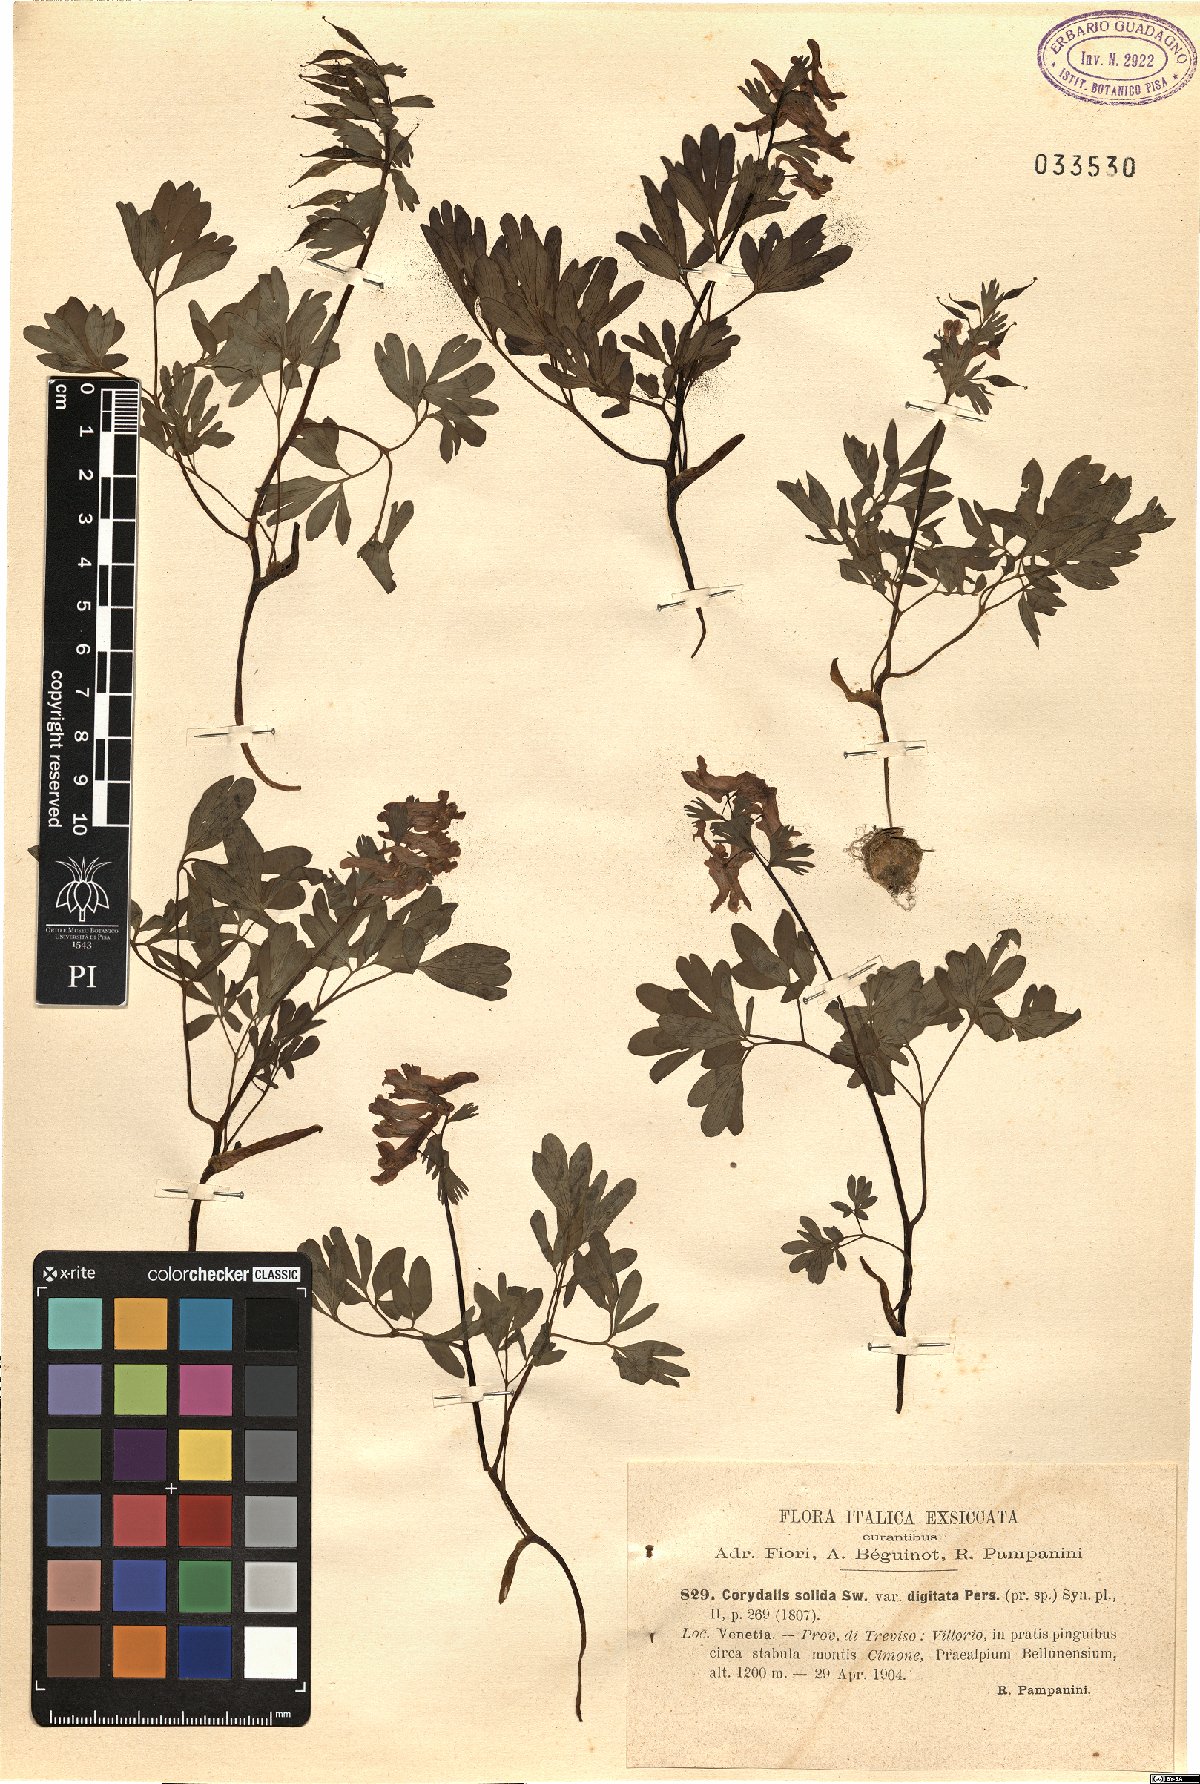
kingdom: Plantae
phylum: Tracheophyta
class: Magnoliopsida
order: Ranunculales
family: Papaveraceae
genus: Corydalis
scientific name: Corydalis solida
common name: Bird-in-a-bush
